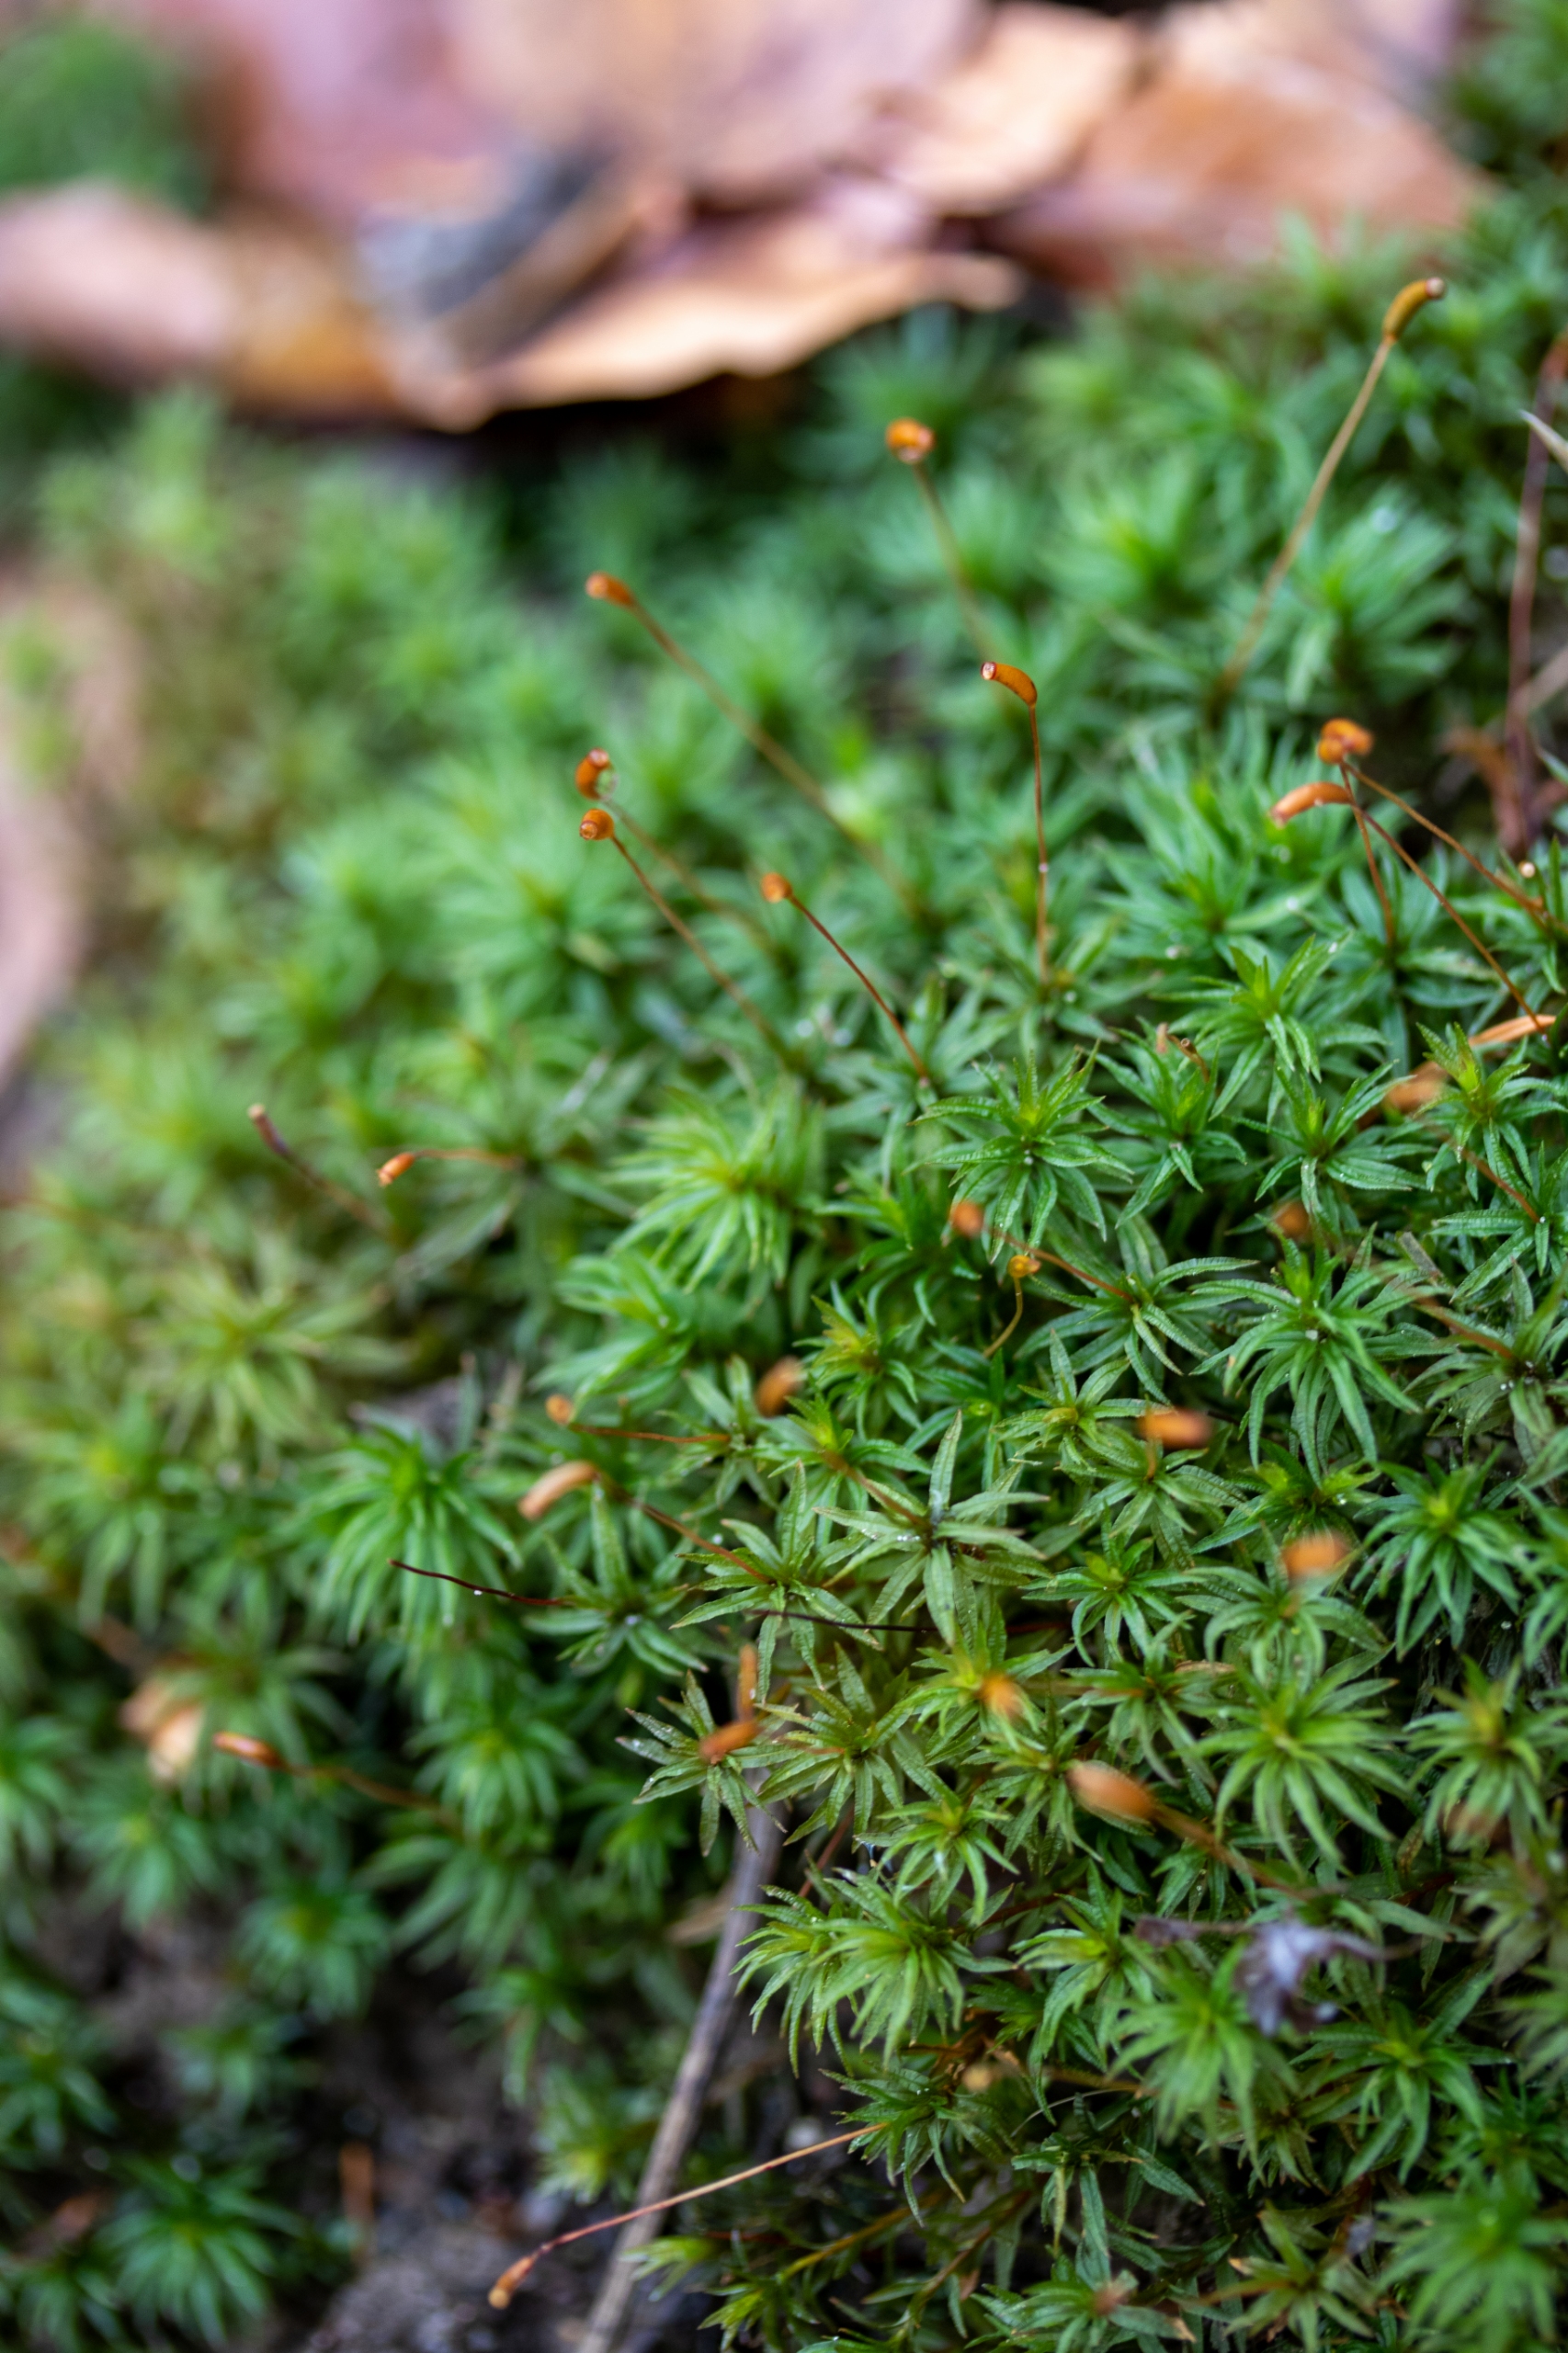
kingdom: Plantae
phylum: Bryophyta
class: Polytrichopsida
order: Polytrichales
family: Polytrichaceae
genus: Atrichum
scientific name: Atrichum undulatum
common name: Bølget katrinemos
